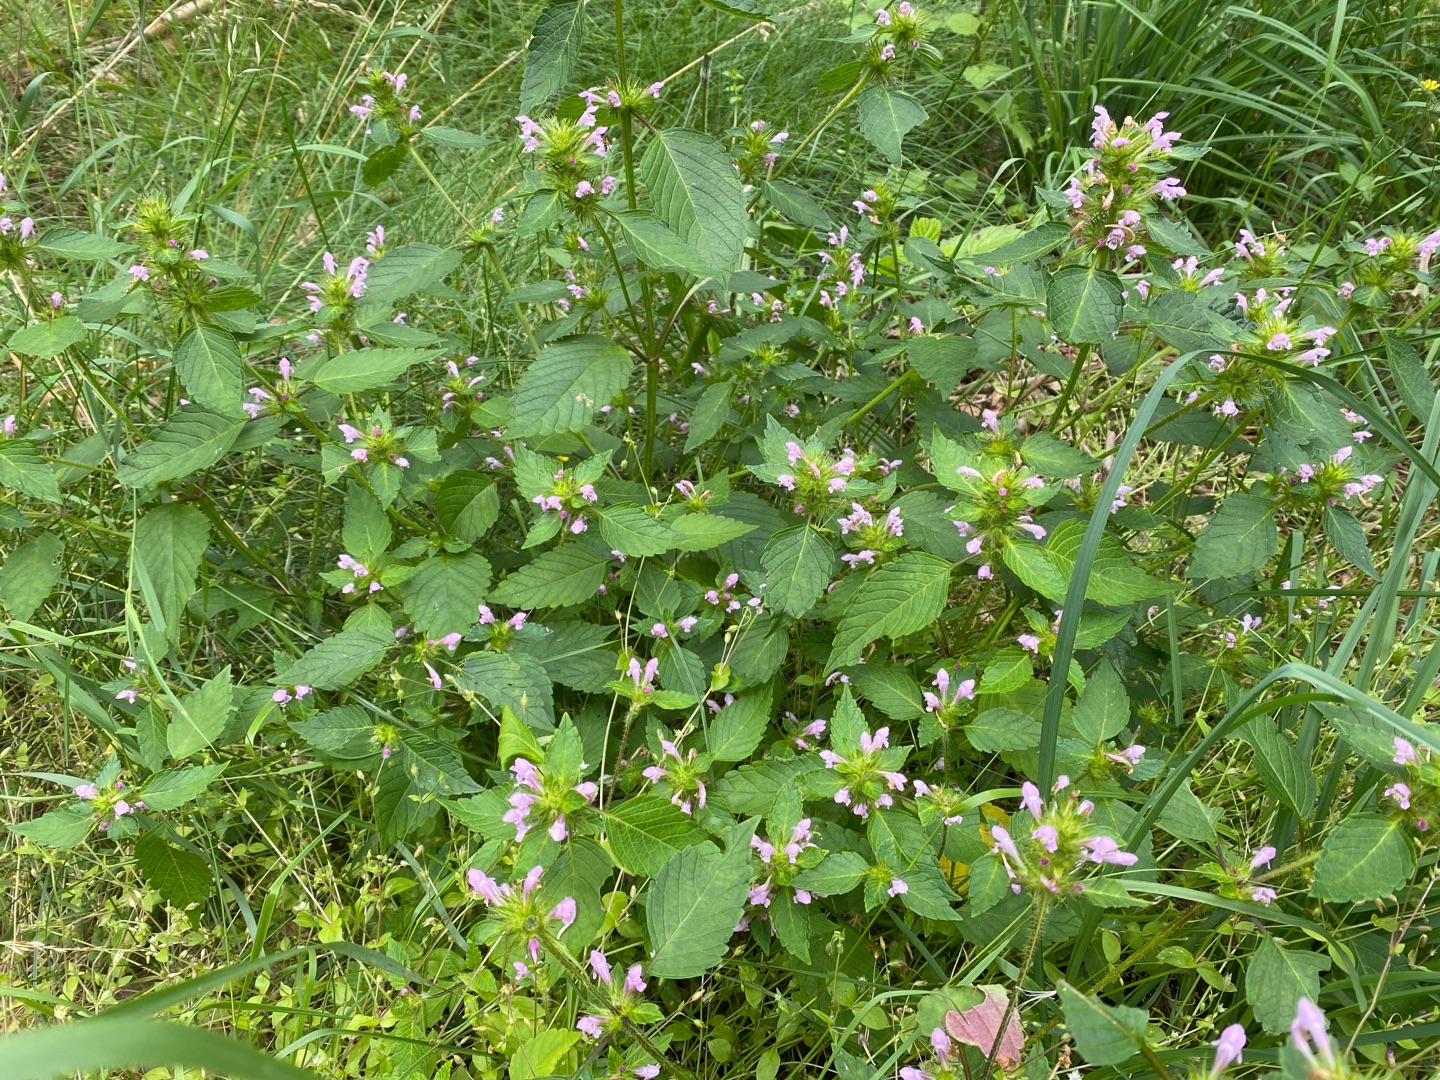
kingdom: Plantae
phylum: Tracheophyta
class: Magnoliopsida
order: Lamiales
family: Lamiaceae
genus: Galeopsis
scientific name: Galeopsis tetrahit
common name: Almindelig hanekro
